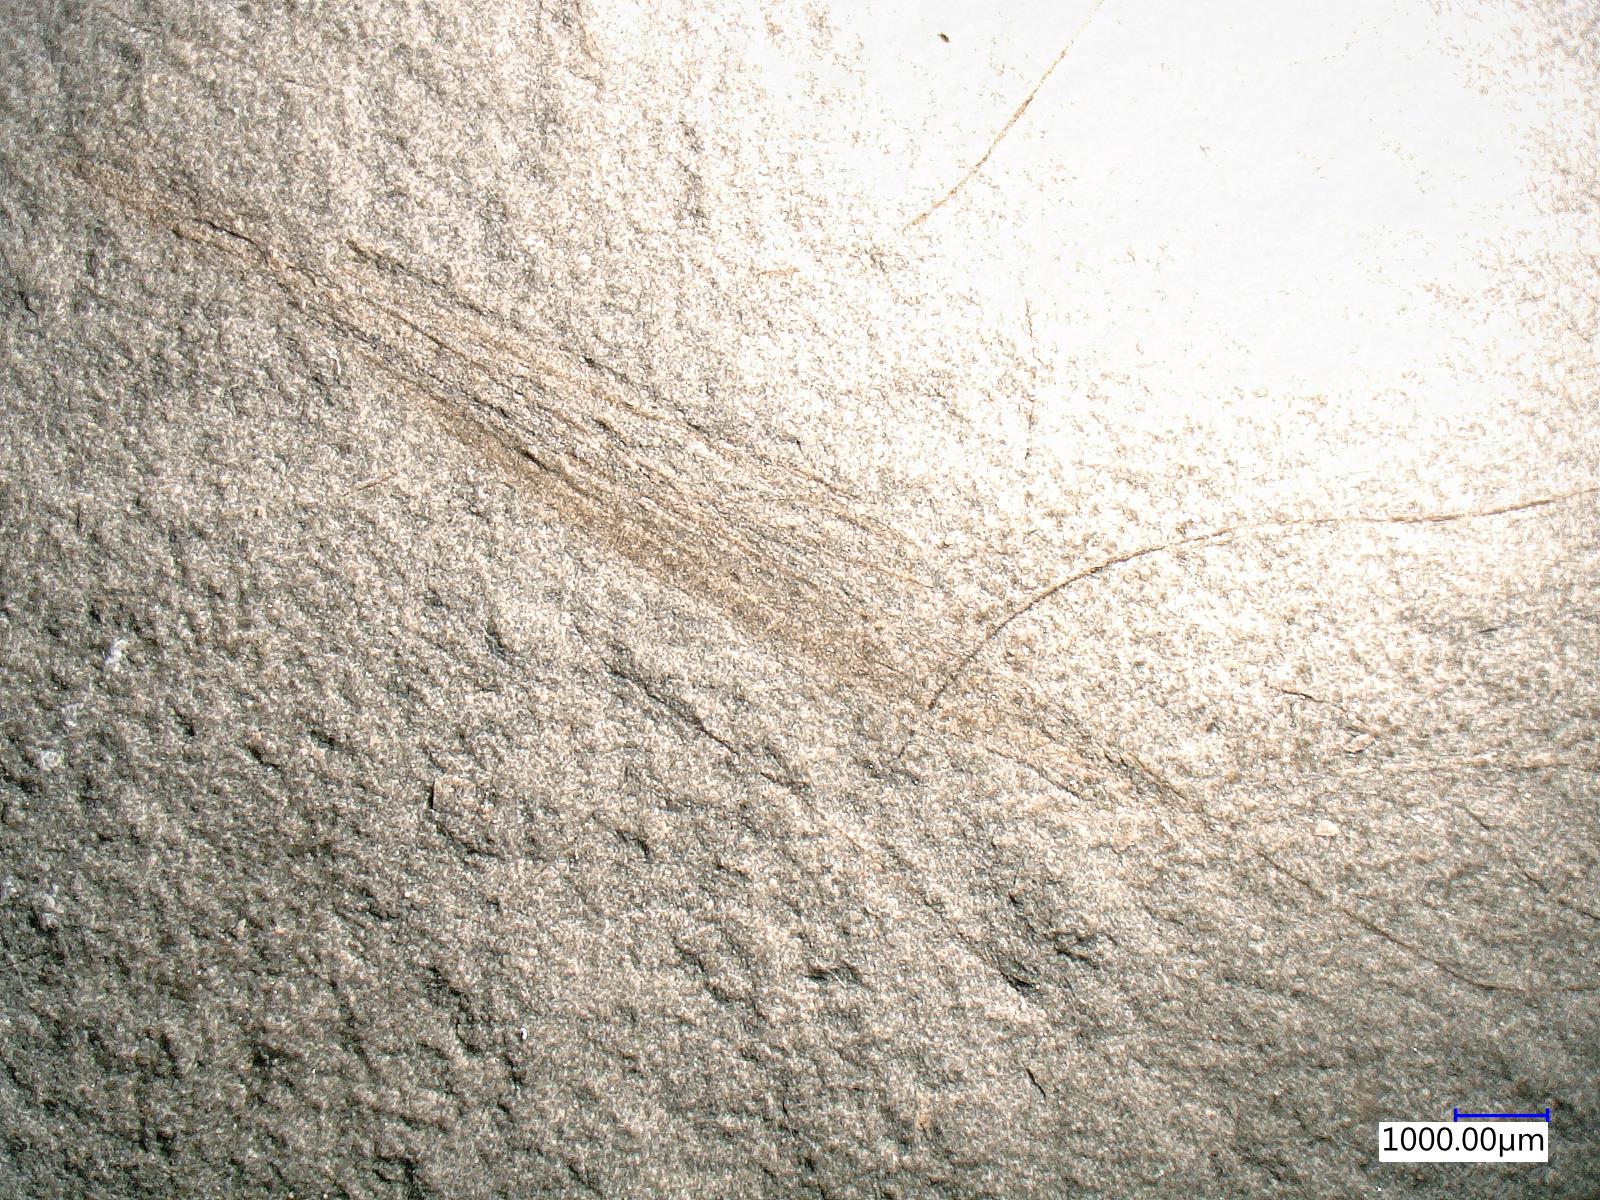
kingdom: Animalia
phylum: Arthropoda
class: Insecta
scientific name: Insecta
